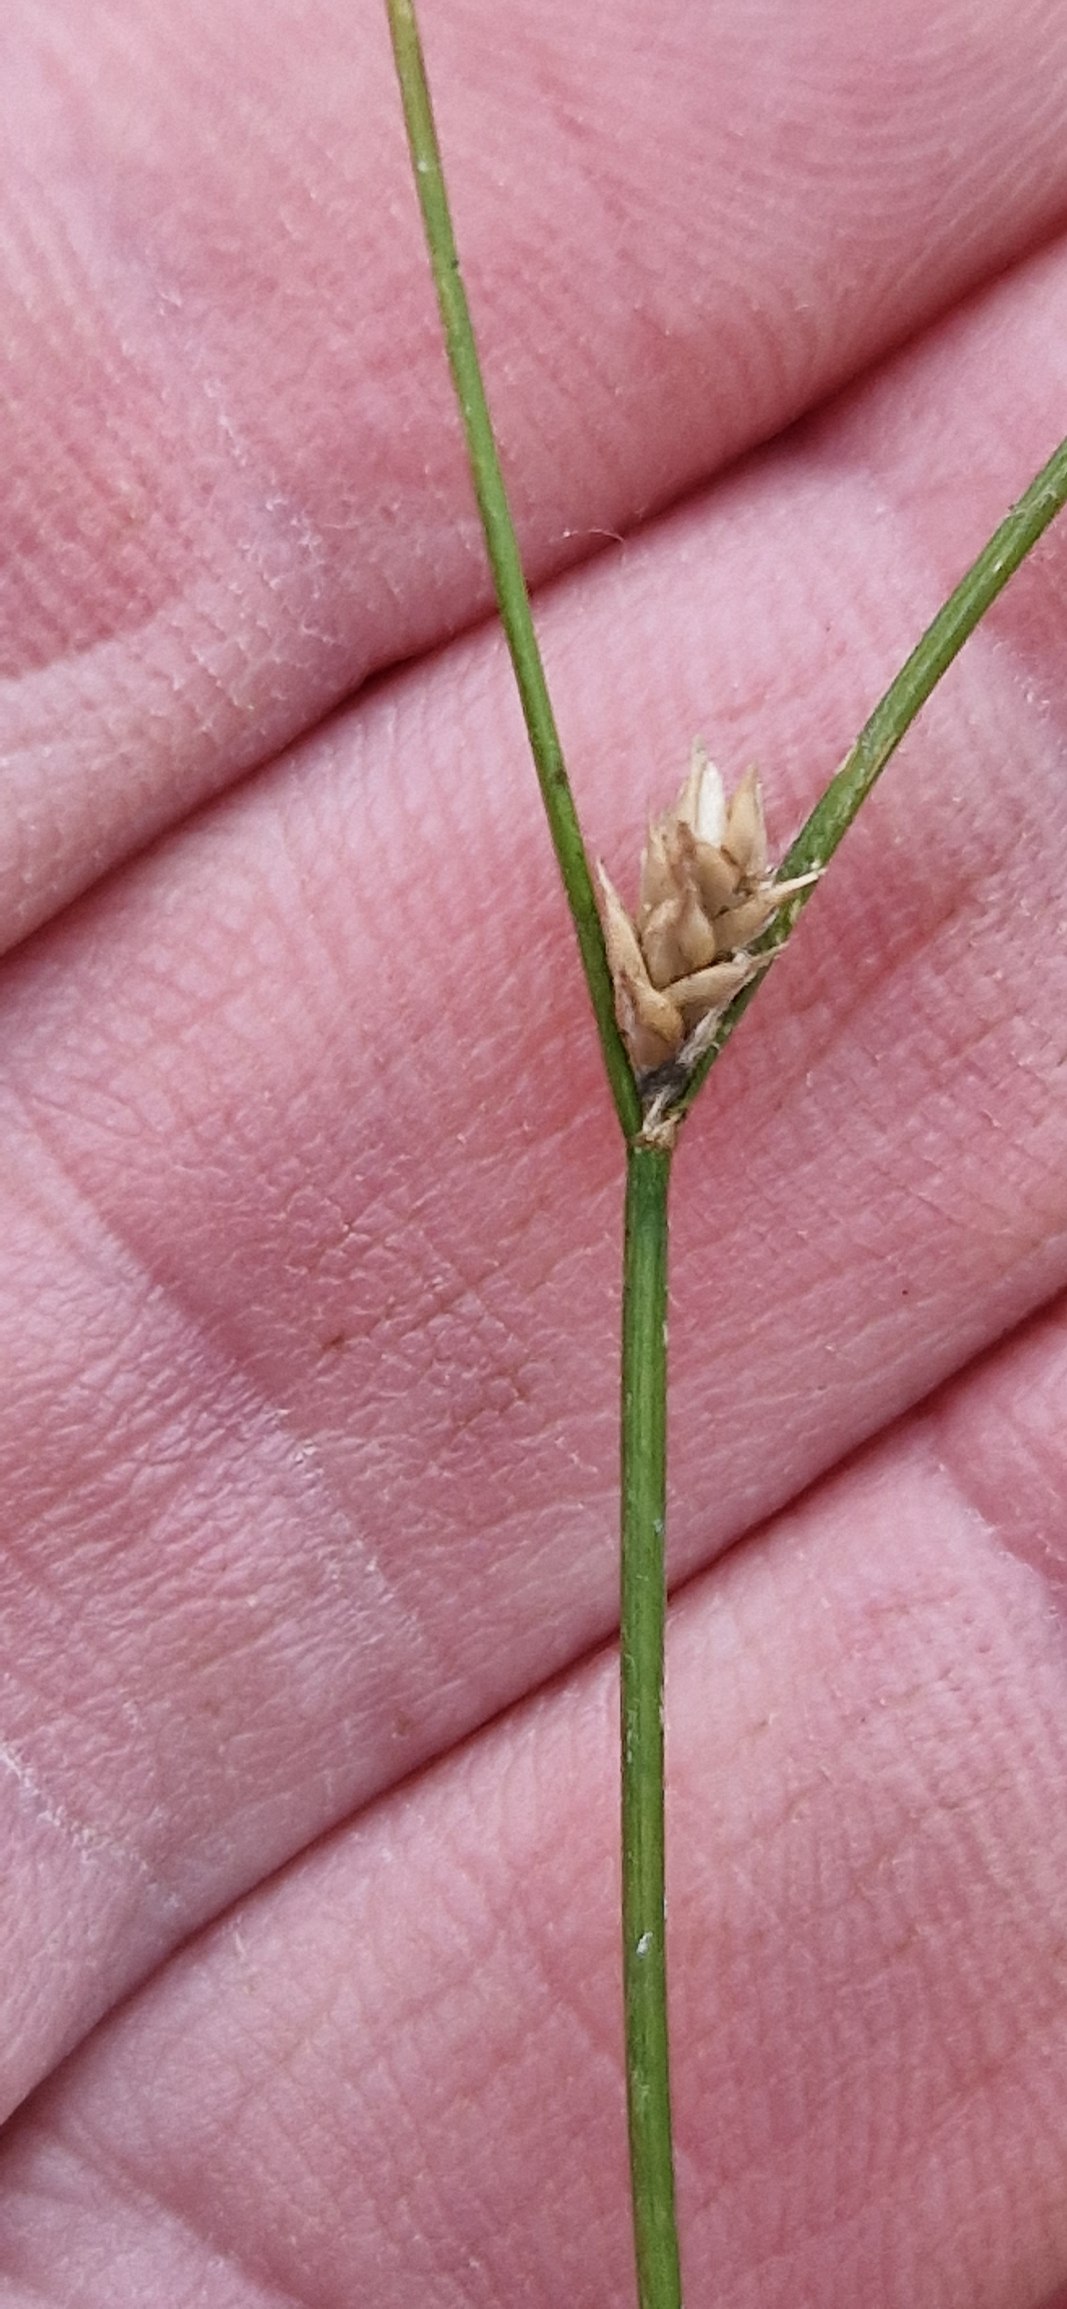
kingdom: Plantae
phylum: Tracheophyta
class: Liliopsida
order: Poales
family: Cyperaceae
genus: Carex
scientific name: Carex remota
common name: Akselblomstret star
